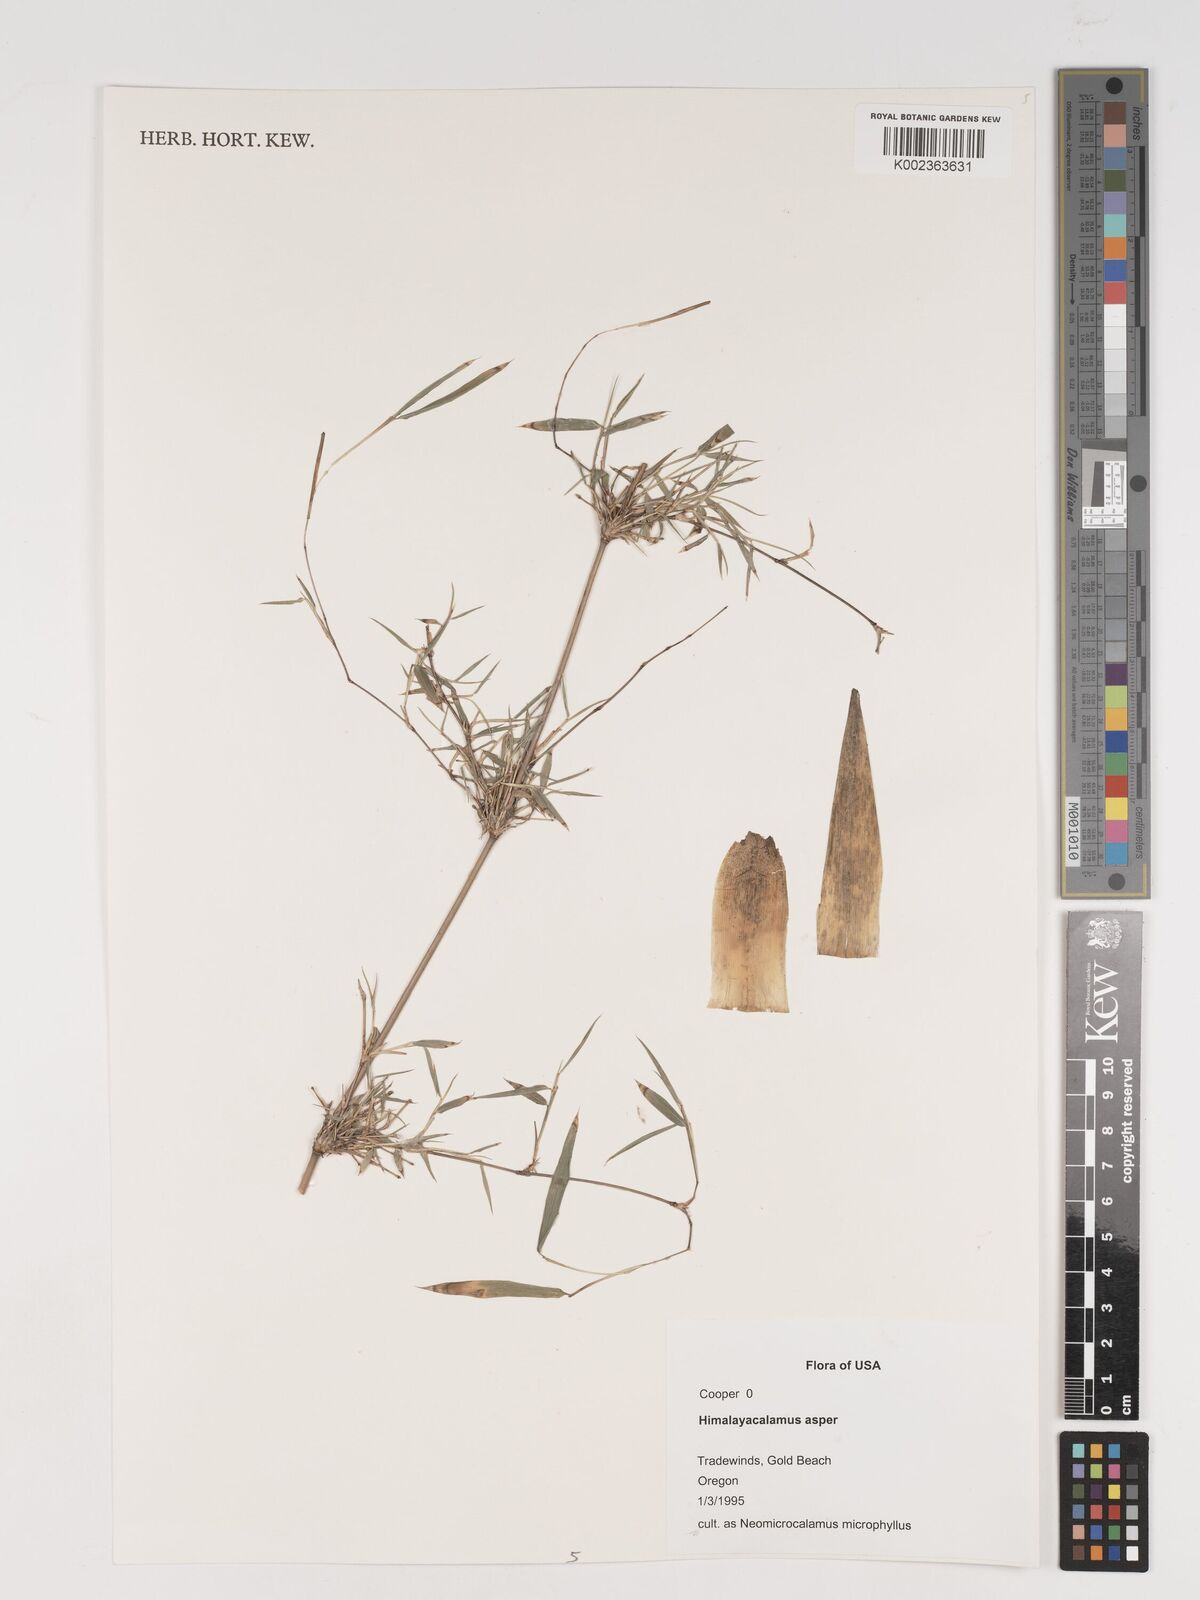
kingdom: Plantae
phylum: Tracheophyta
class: Liliopsida
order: Poales
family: Poaceae
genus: Himalayacalamus
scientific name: Himalayacalamus asper
